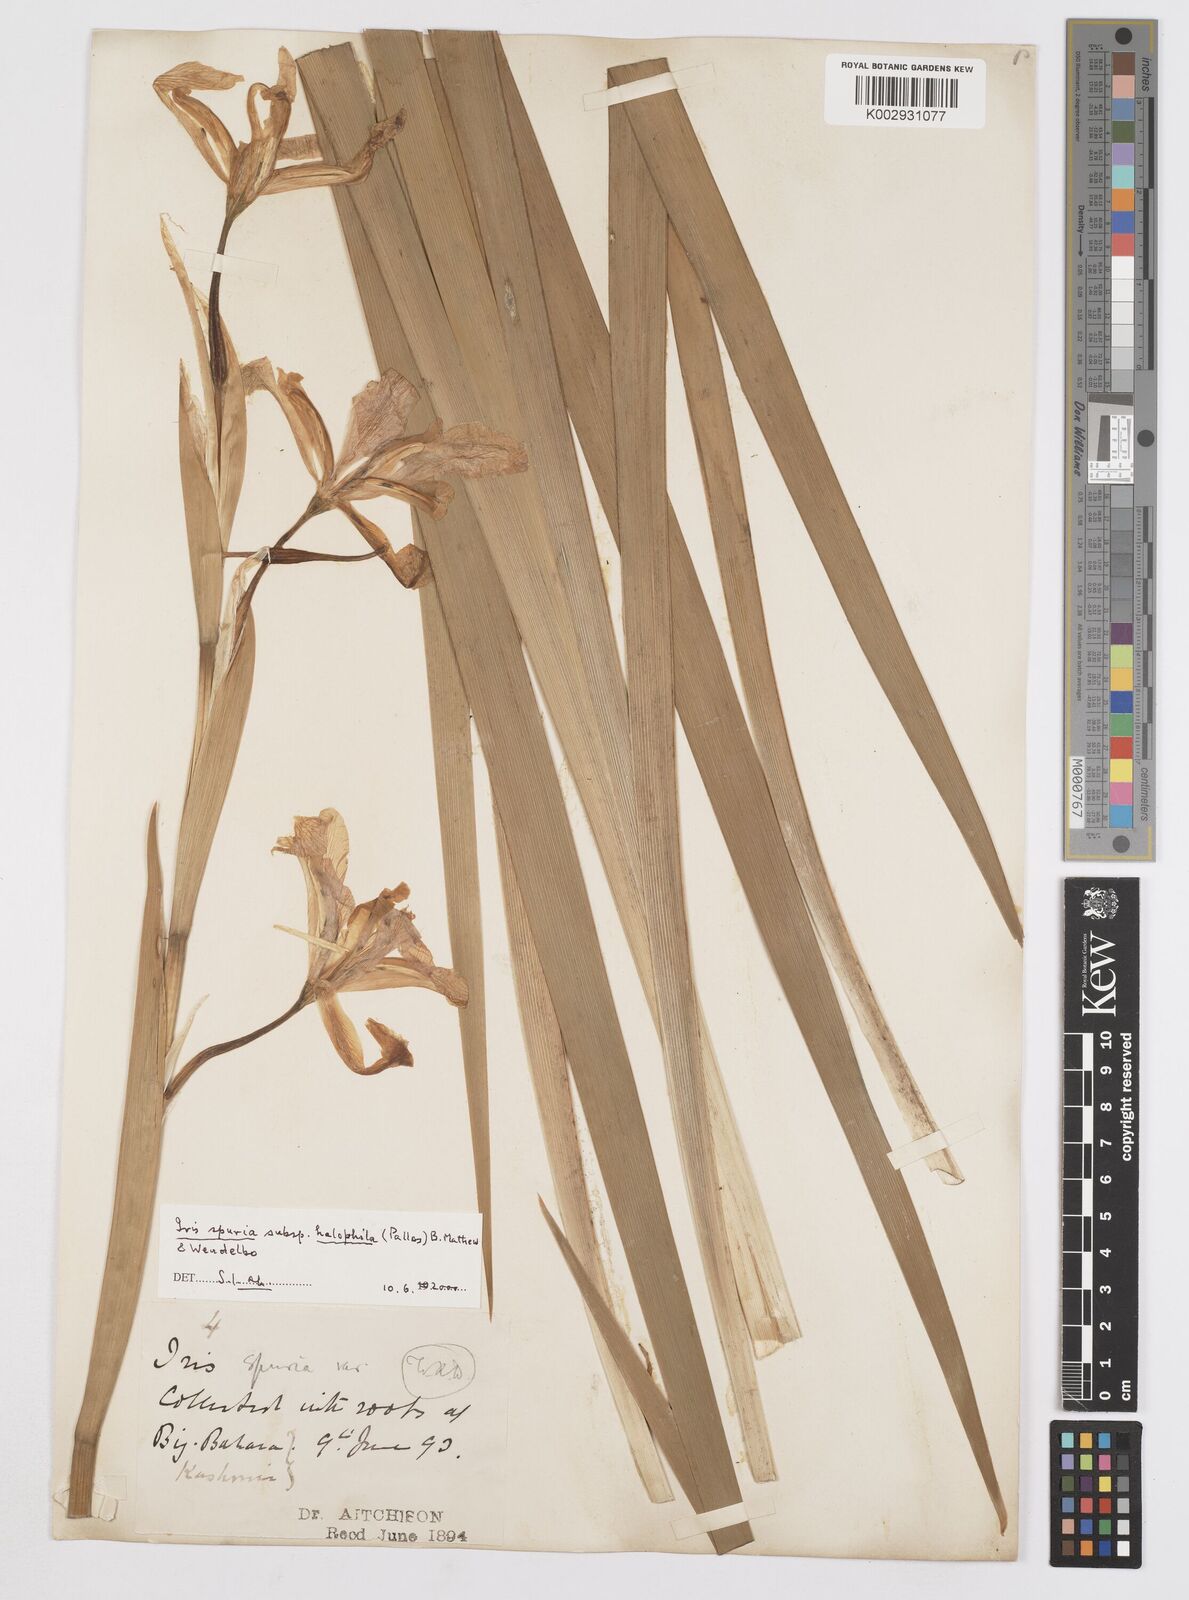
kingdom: Plantae
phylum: Tracheophyta
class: Liliopsida
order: Asparagales
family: Iridaceae
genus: Iris
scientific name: Iris spuria
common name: Blue iris
